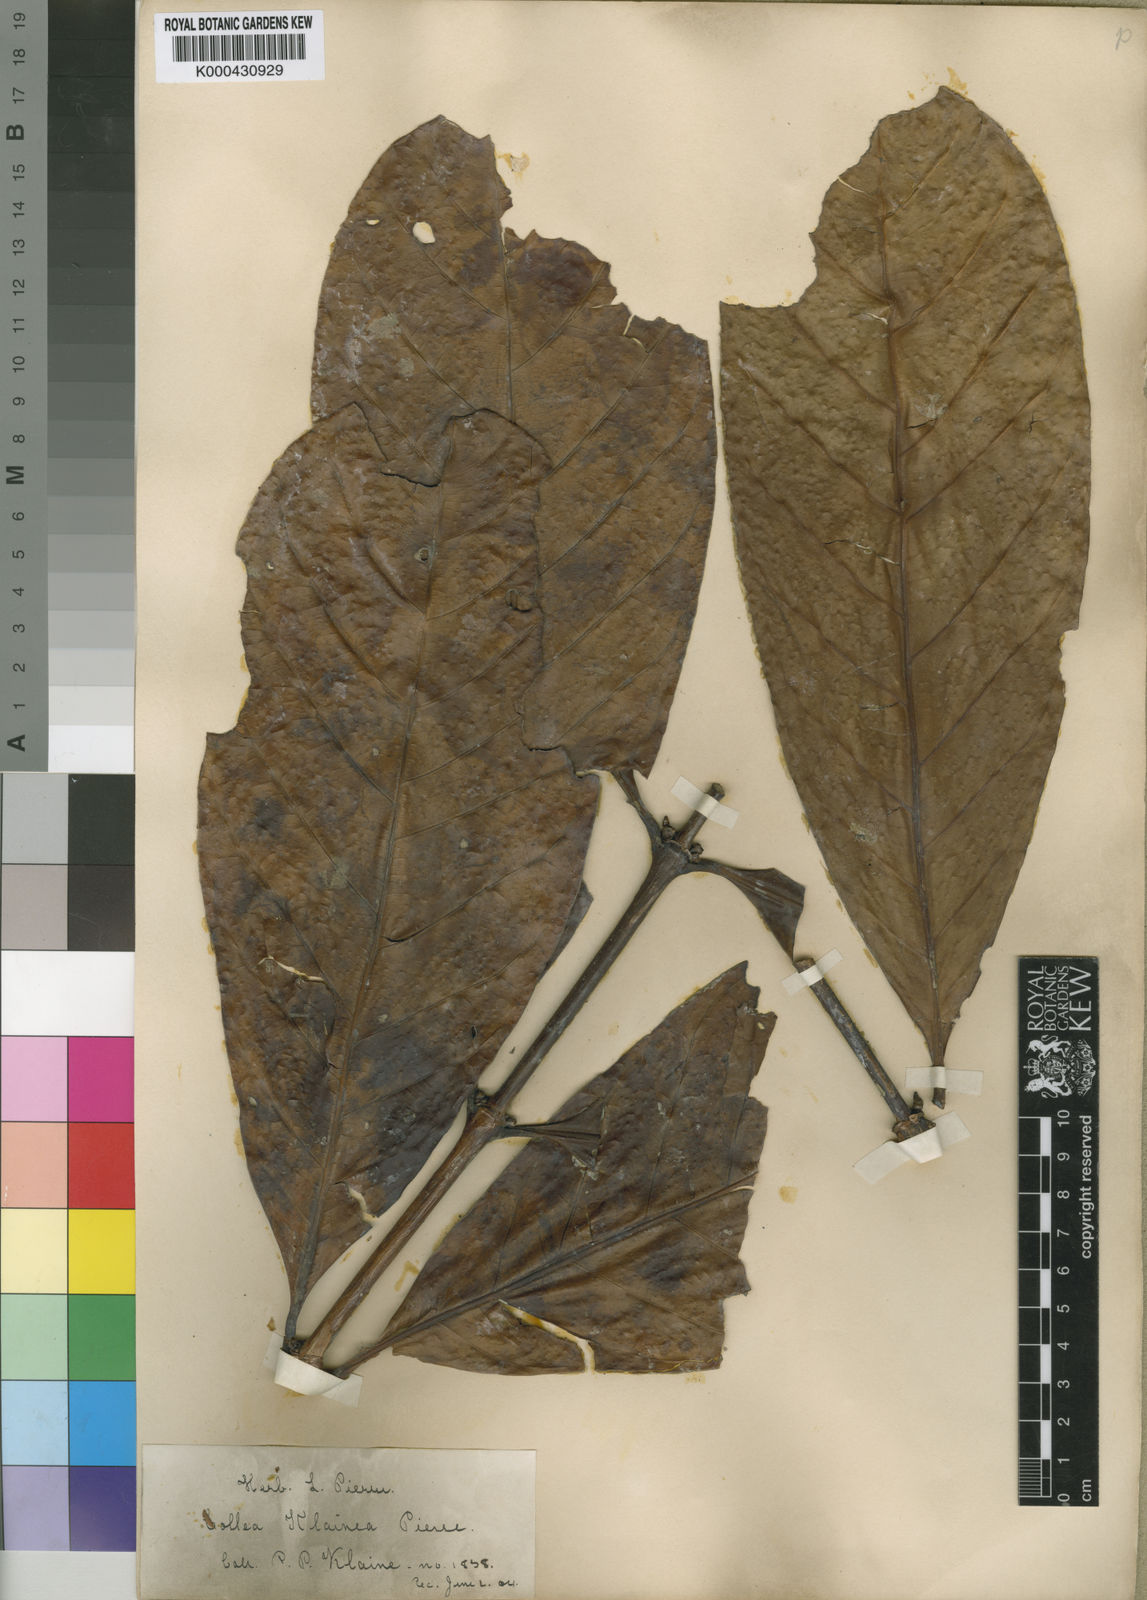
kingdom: Plantae
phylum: Tracheophyta
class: Magnoliopsida
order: Gentianales
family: Rubiaceae
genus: Coffea
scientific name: Coffea
